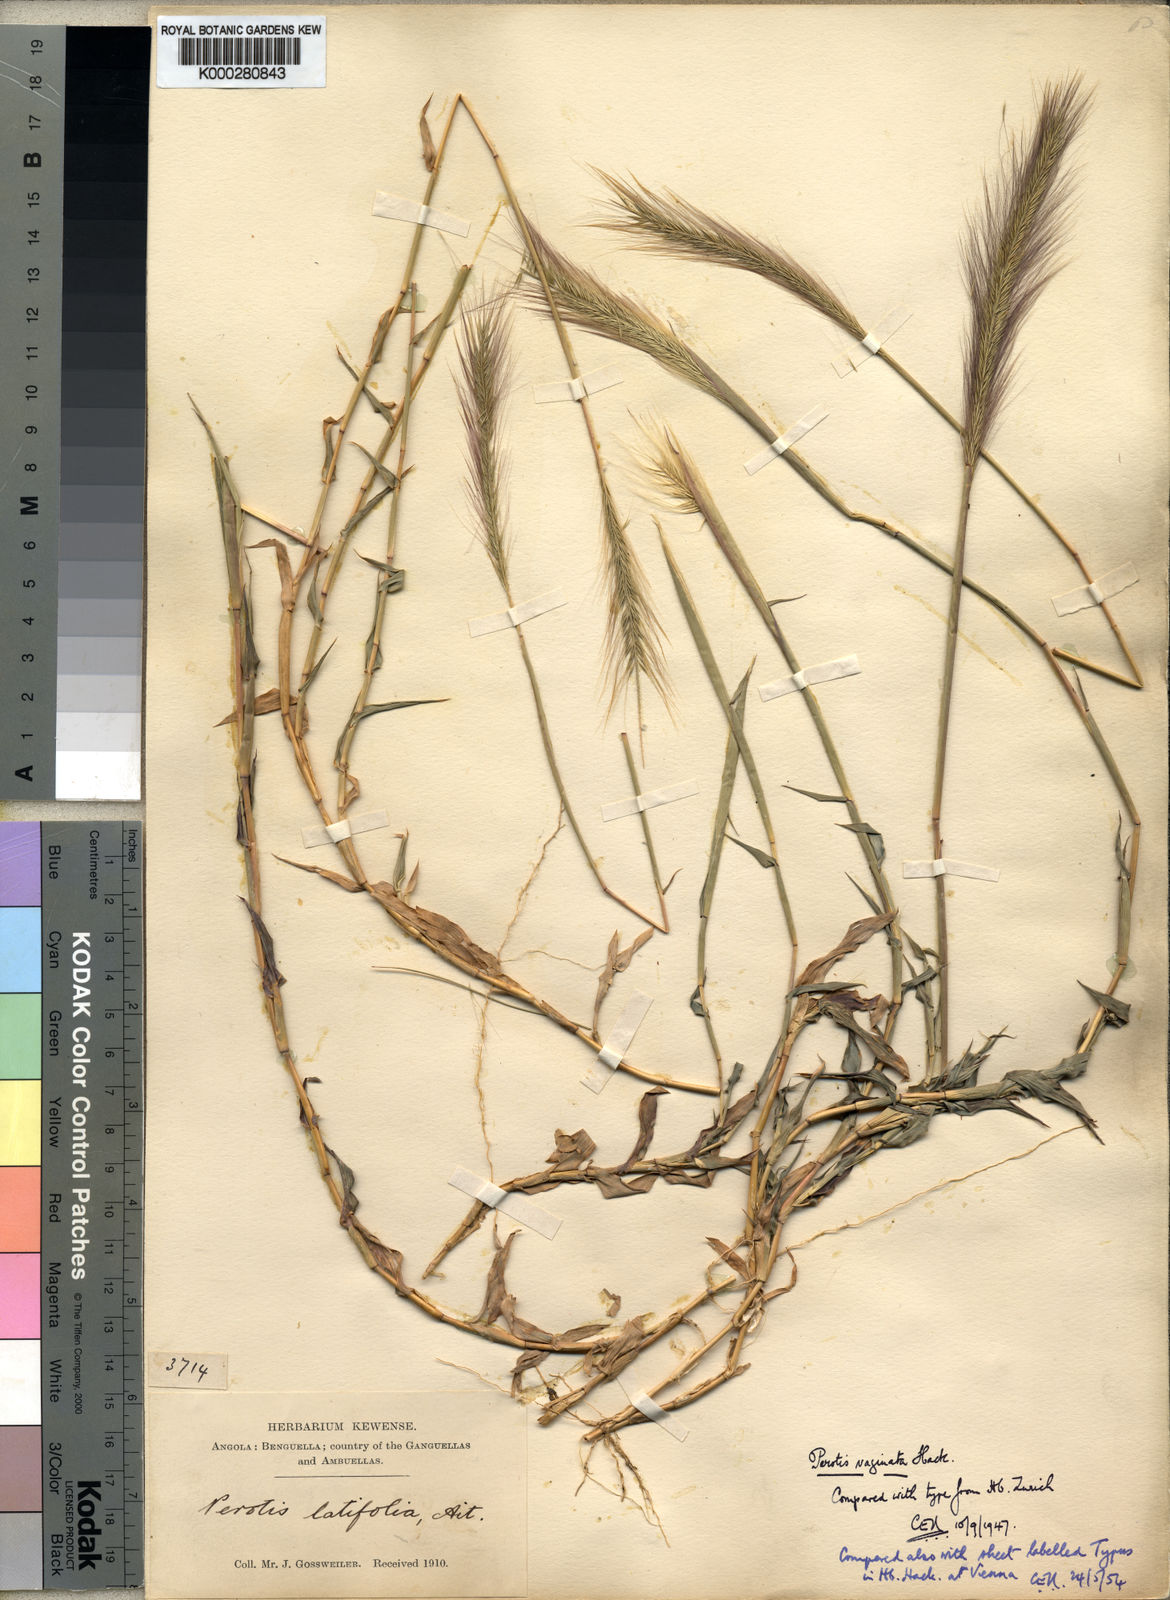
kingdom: Plantae
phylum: Tracheophyta
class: Liliopsida
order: Poales
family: Poaceae
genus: Perotis
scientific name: Perotis vaginata
